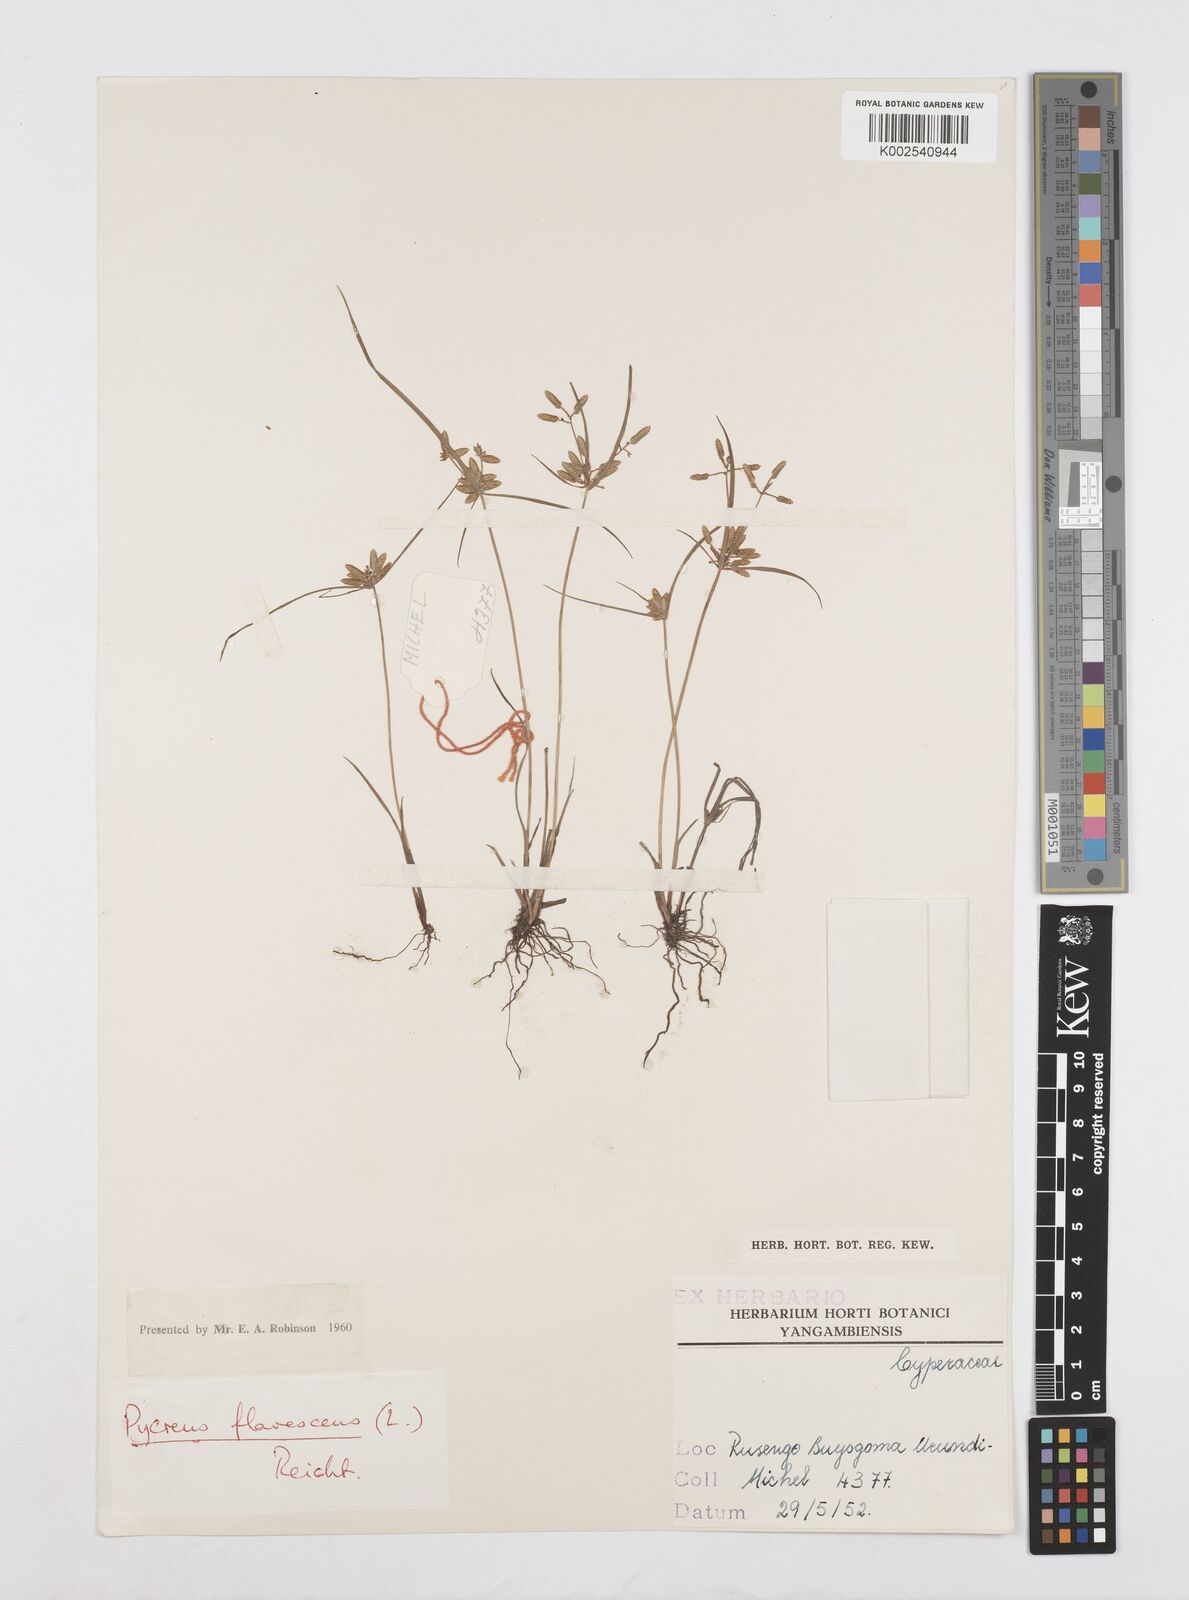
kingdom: Plantae
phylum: Tracheophyta
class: Liliopsida
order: Poales
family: Cyperaceae
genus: Cyperus
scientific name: Cyperus flavescens
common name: Yellow galingale
